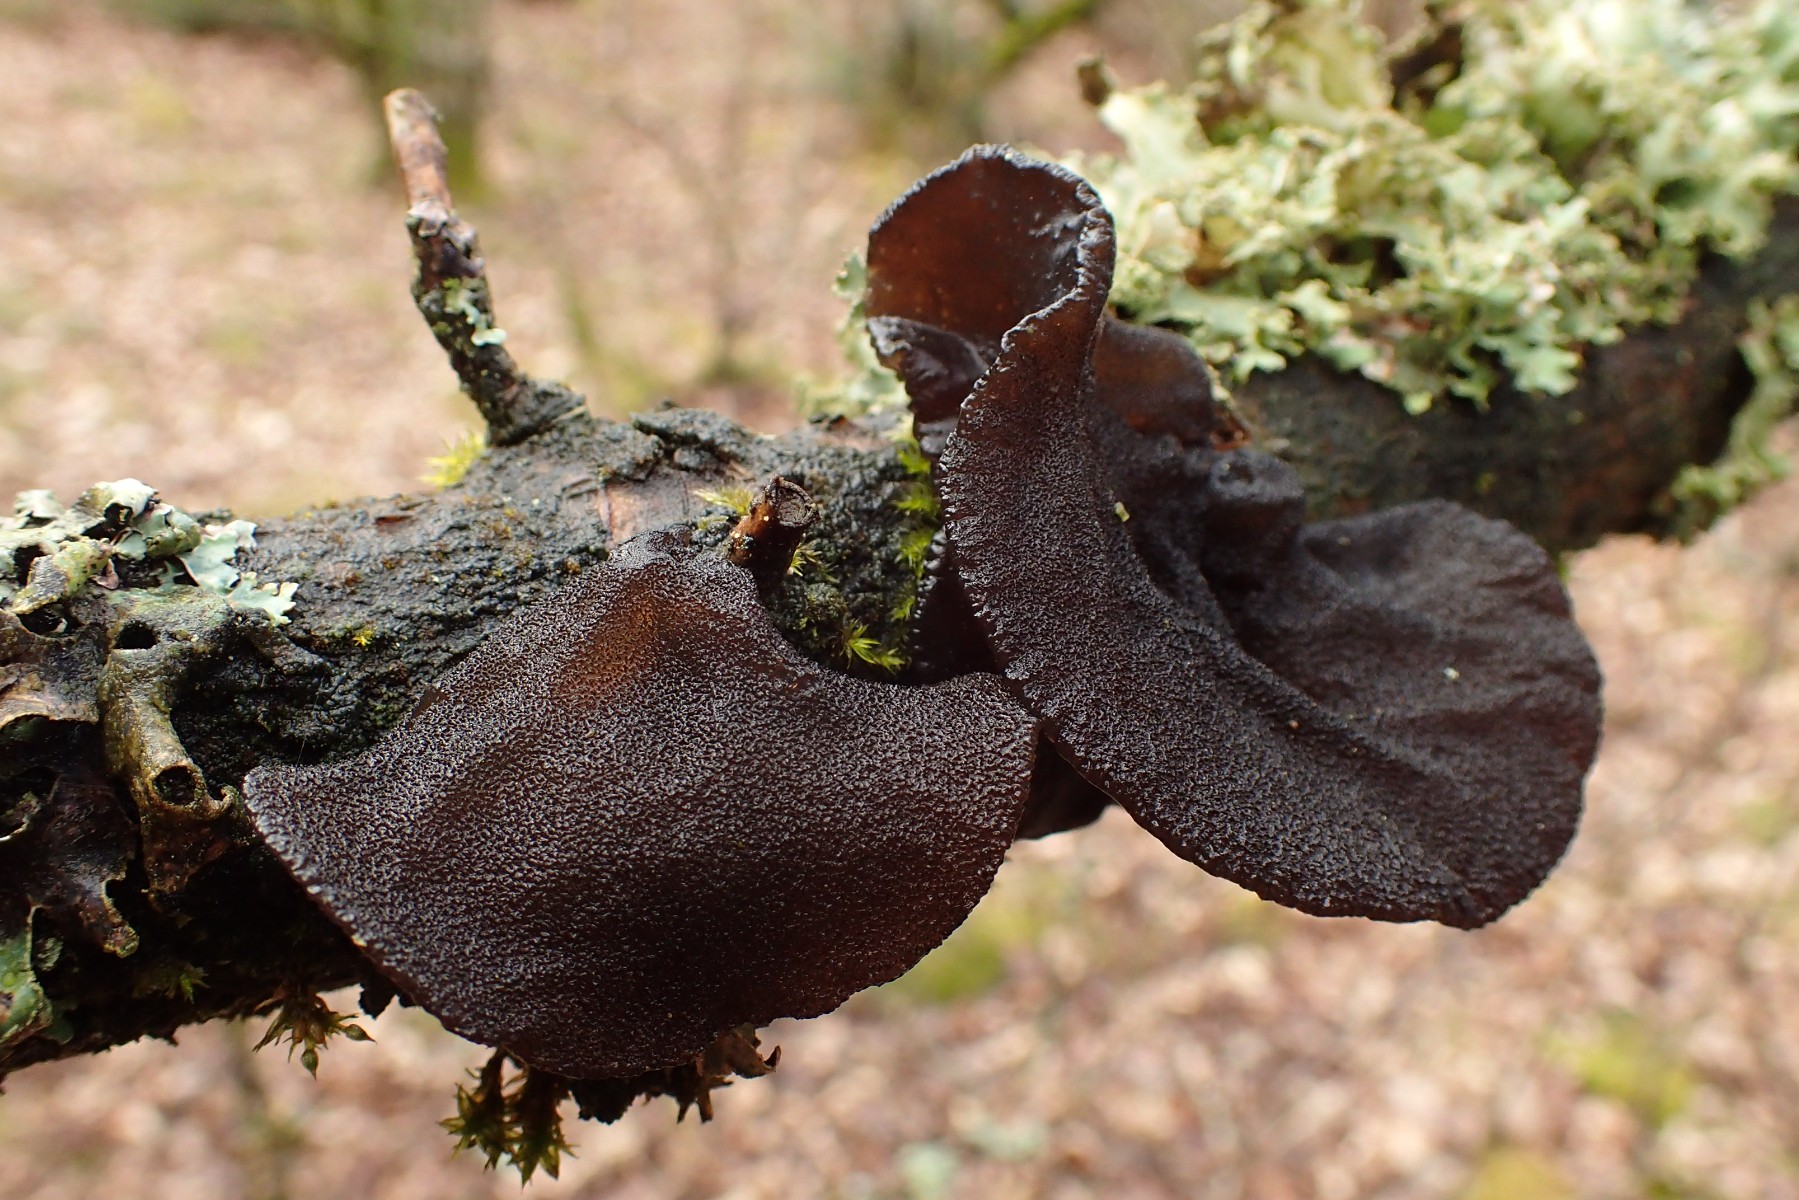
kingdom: Fungi
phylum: Basidiomycota
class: Agaricomycetes
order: Auriculariales
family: Auriculariaceae
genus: Exidia
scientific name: Exidia glandulosa
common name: ege-bævretop
